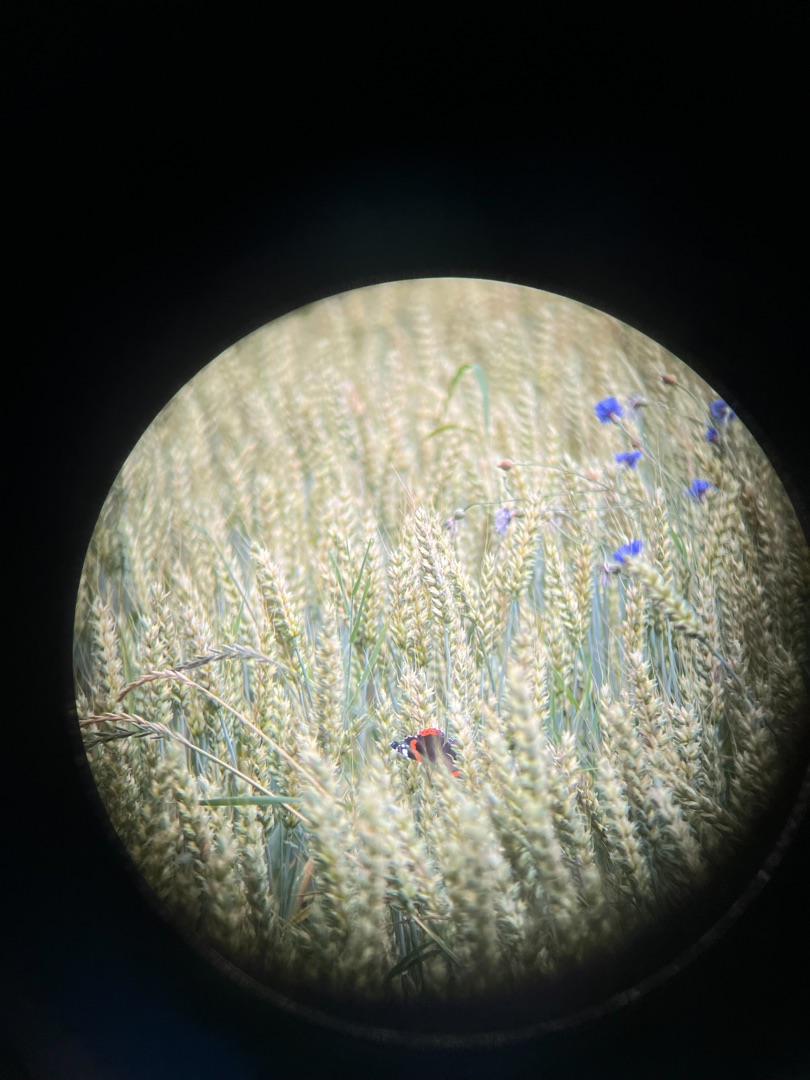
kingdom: Animalia
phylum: Arthropoda
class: Insecta
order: Lepidoptera
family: Nymphalidae
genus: Vanessa
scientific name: Vanessa atalanta
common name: Admiral
